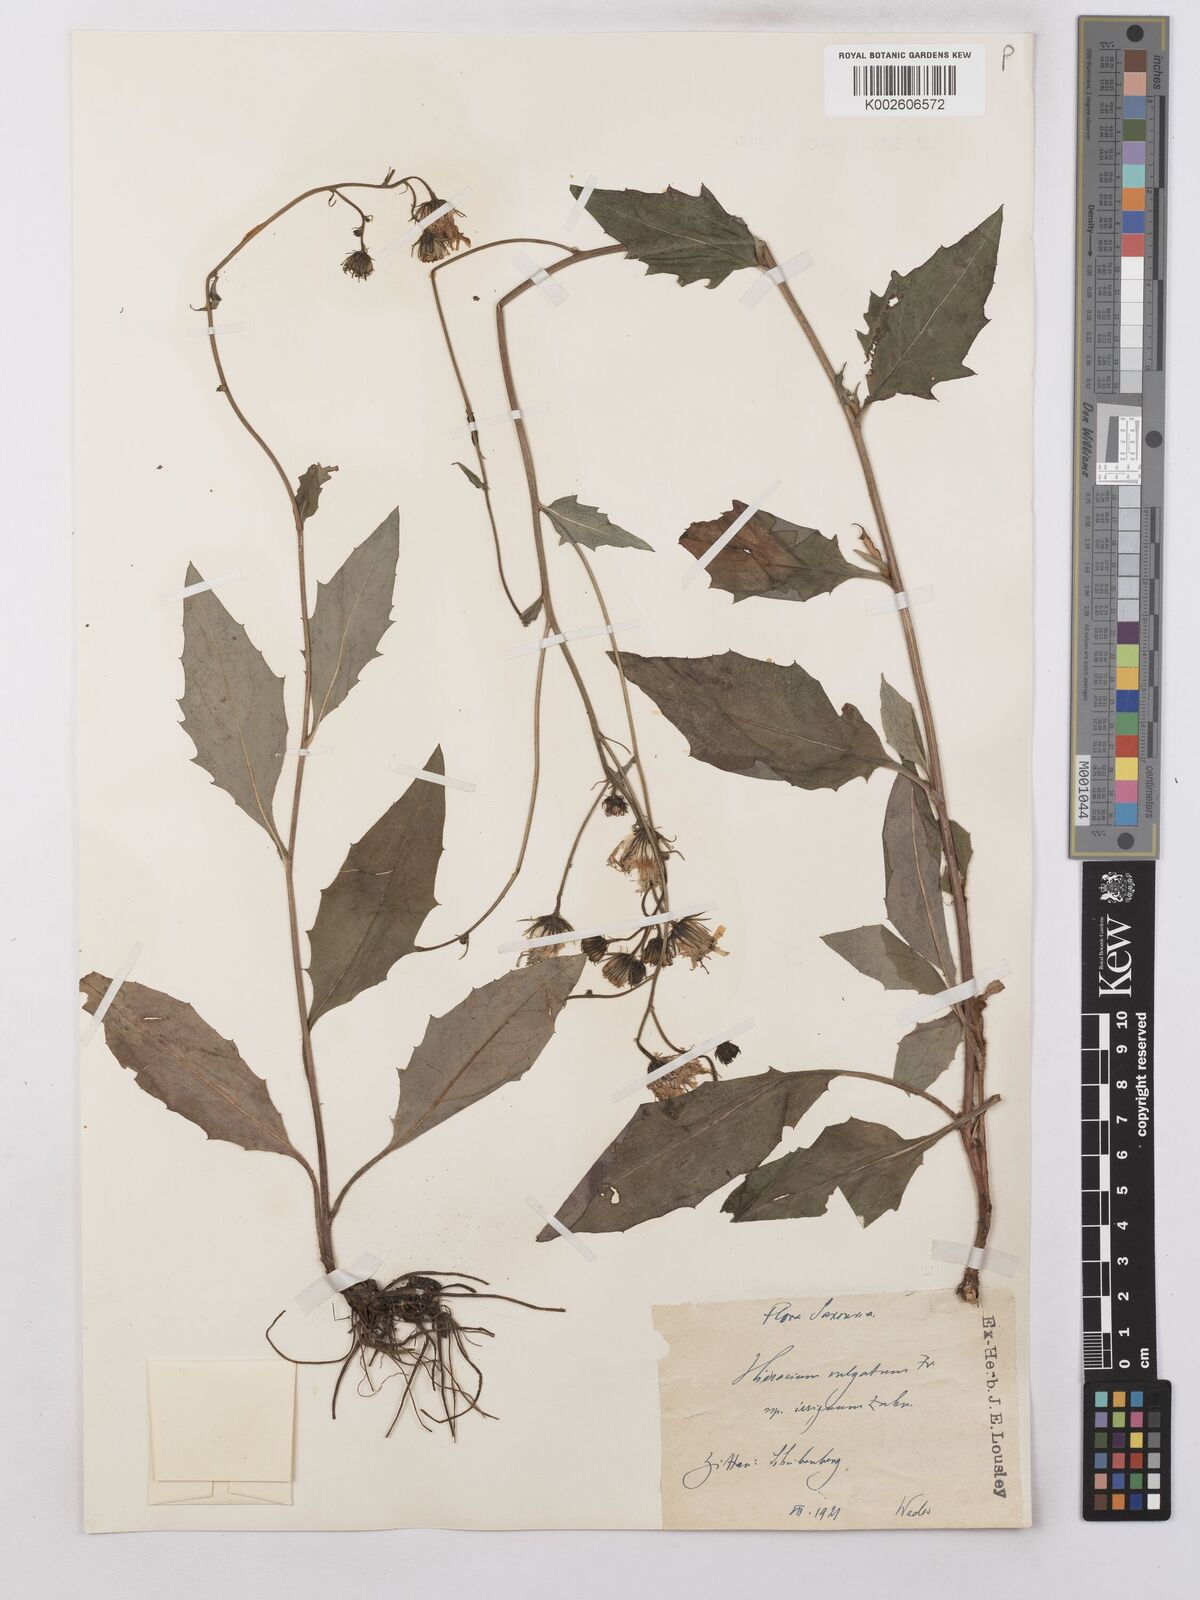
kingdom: Plantae
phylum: Tracheophyta
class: Magnoliopsida
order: Asterales
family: Asteraceae
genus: Hieracium
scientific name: Hieracium lachenalii
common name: Common hawkweed
